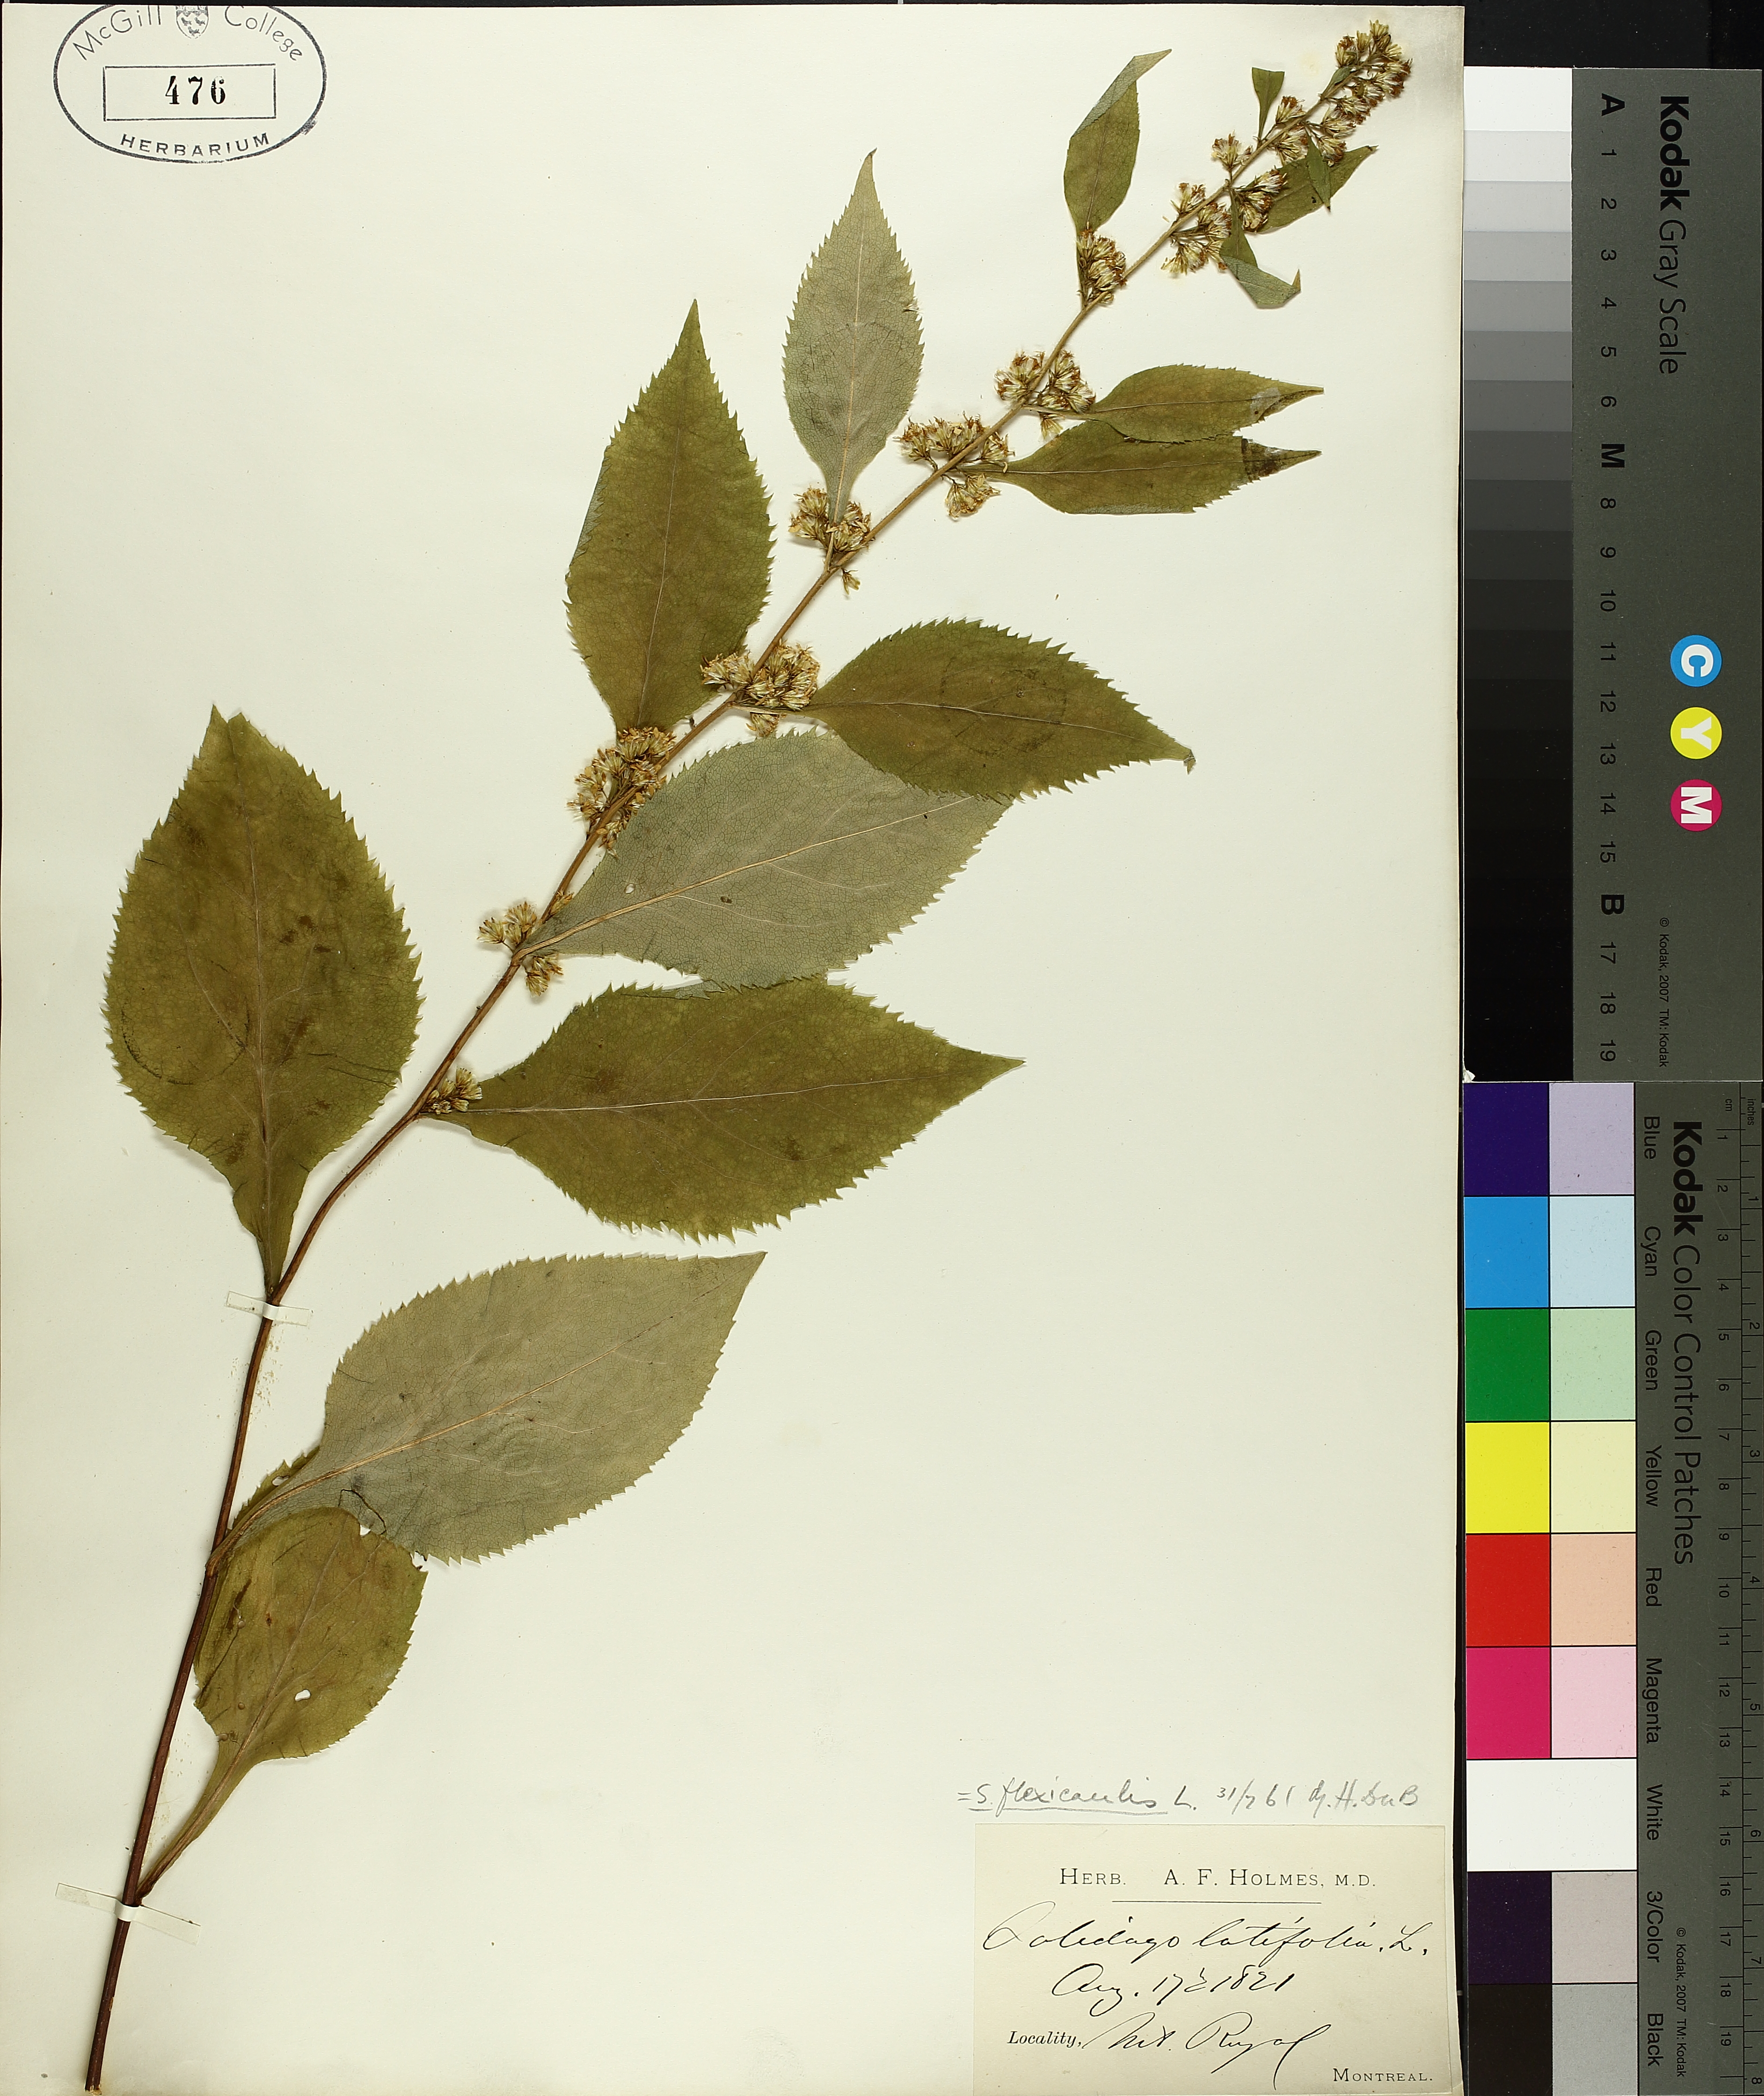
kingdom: Plantae
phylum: Tracheophyta
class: Magnoliopsida
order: Asterales
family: Asteraceae
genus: Solidago
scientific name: Solidago flexicaulis
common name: Zig-zag goldenrod
